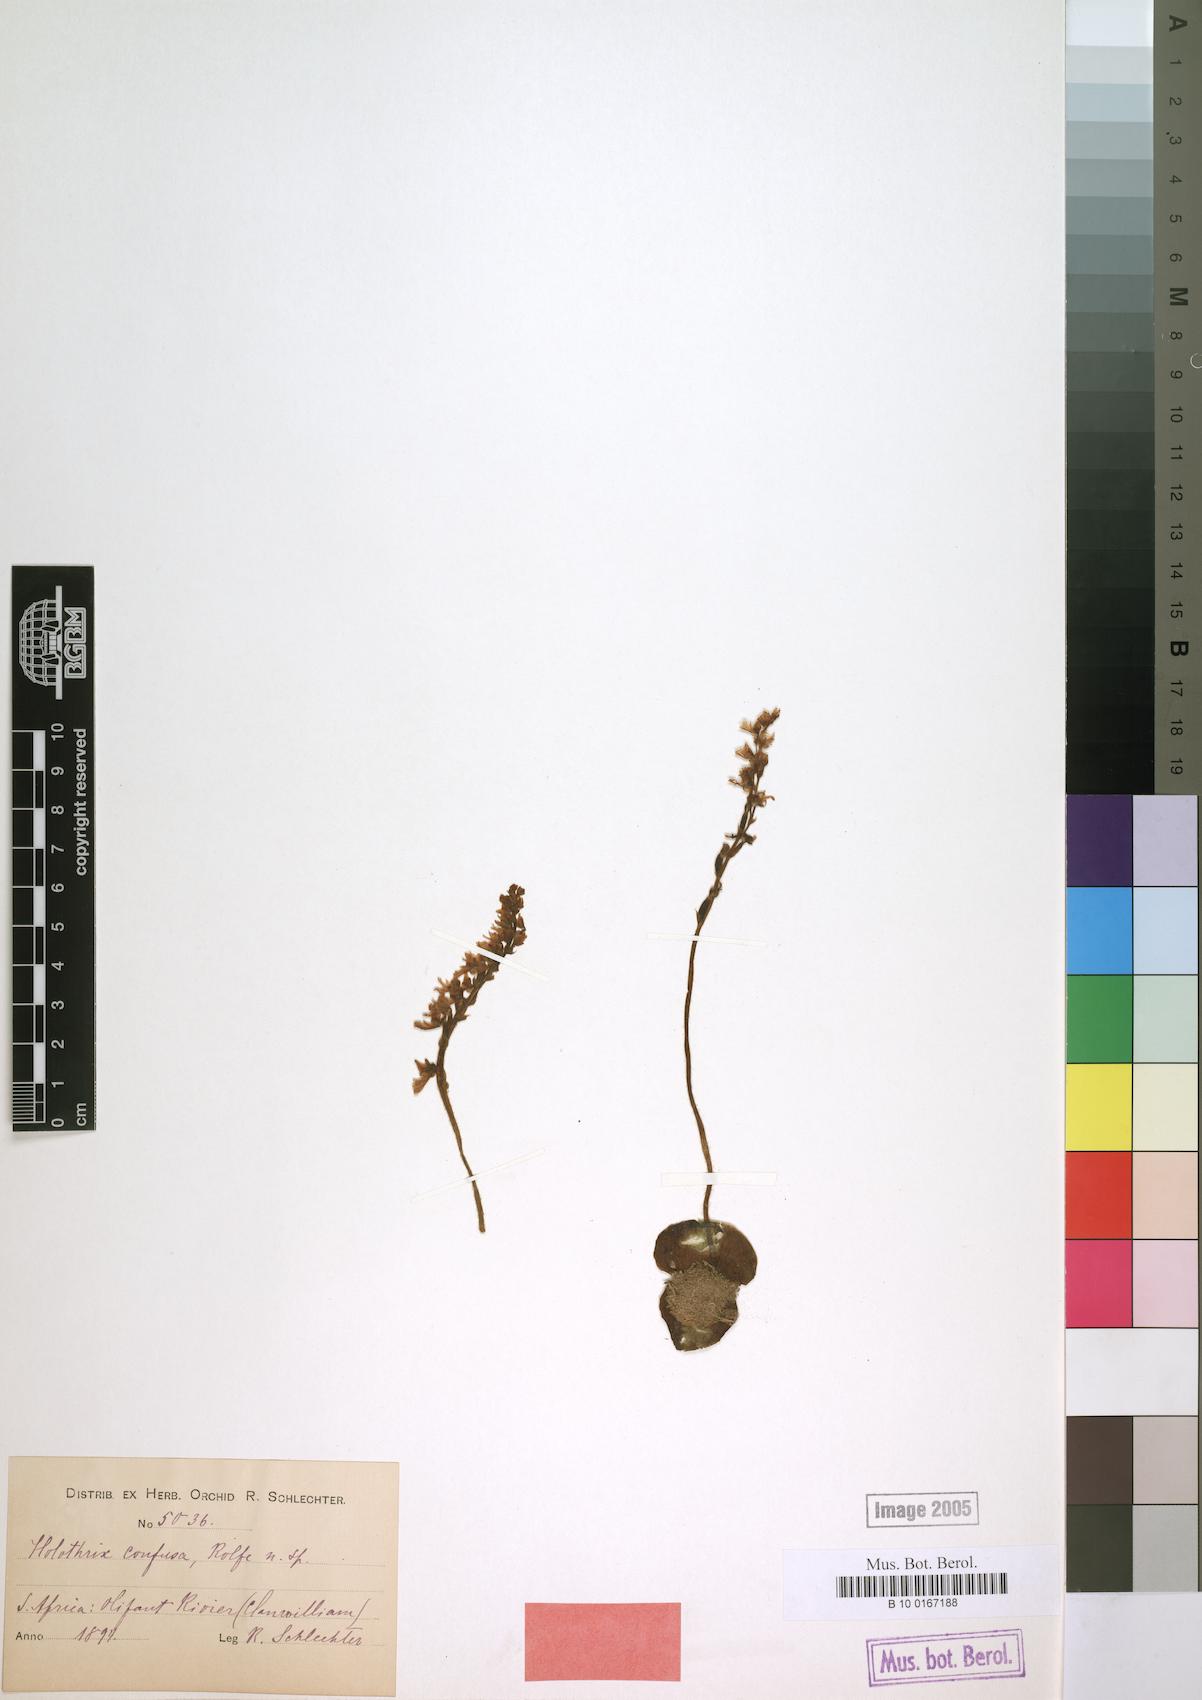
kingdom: Plantae
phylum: Tracheophyta
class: Liliopsida
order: Asparagales
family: Orchidaceae
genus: Holothrix
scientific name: Holothrix aspera
